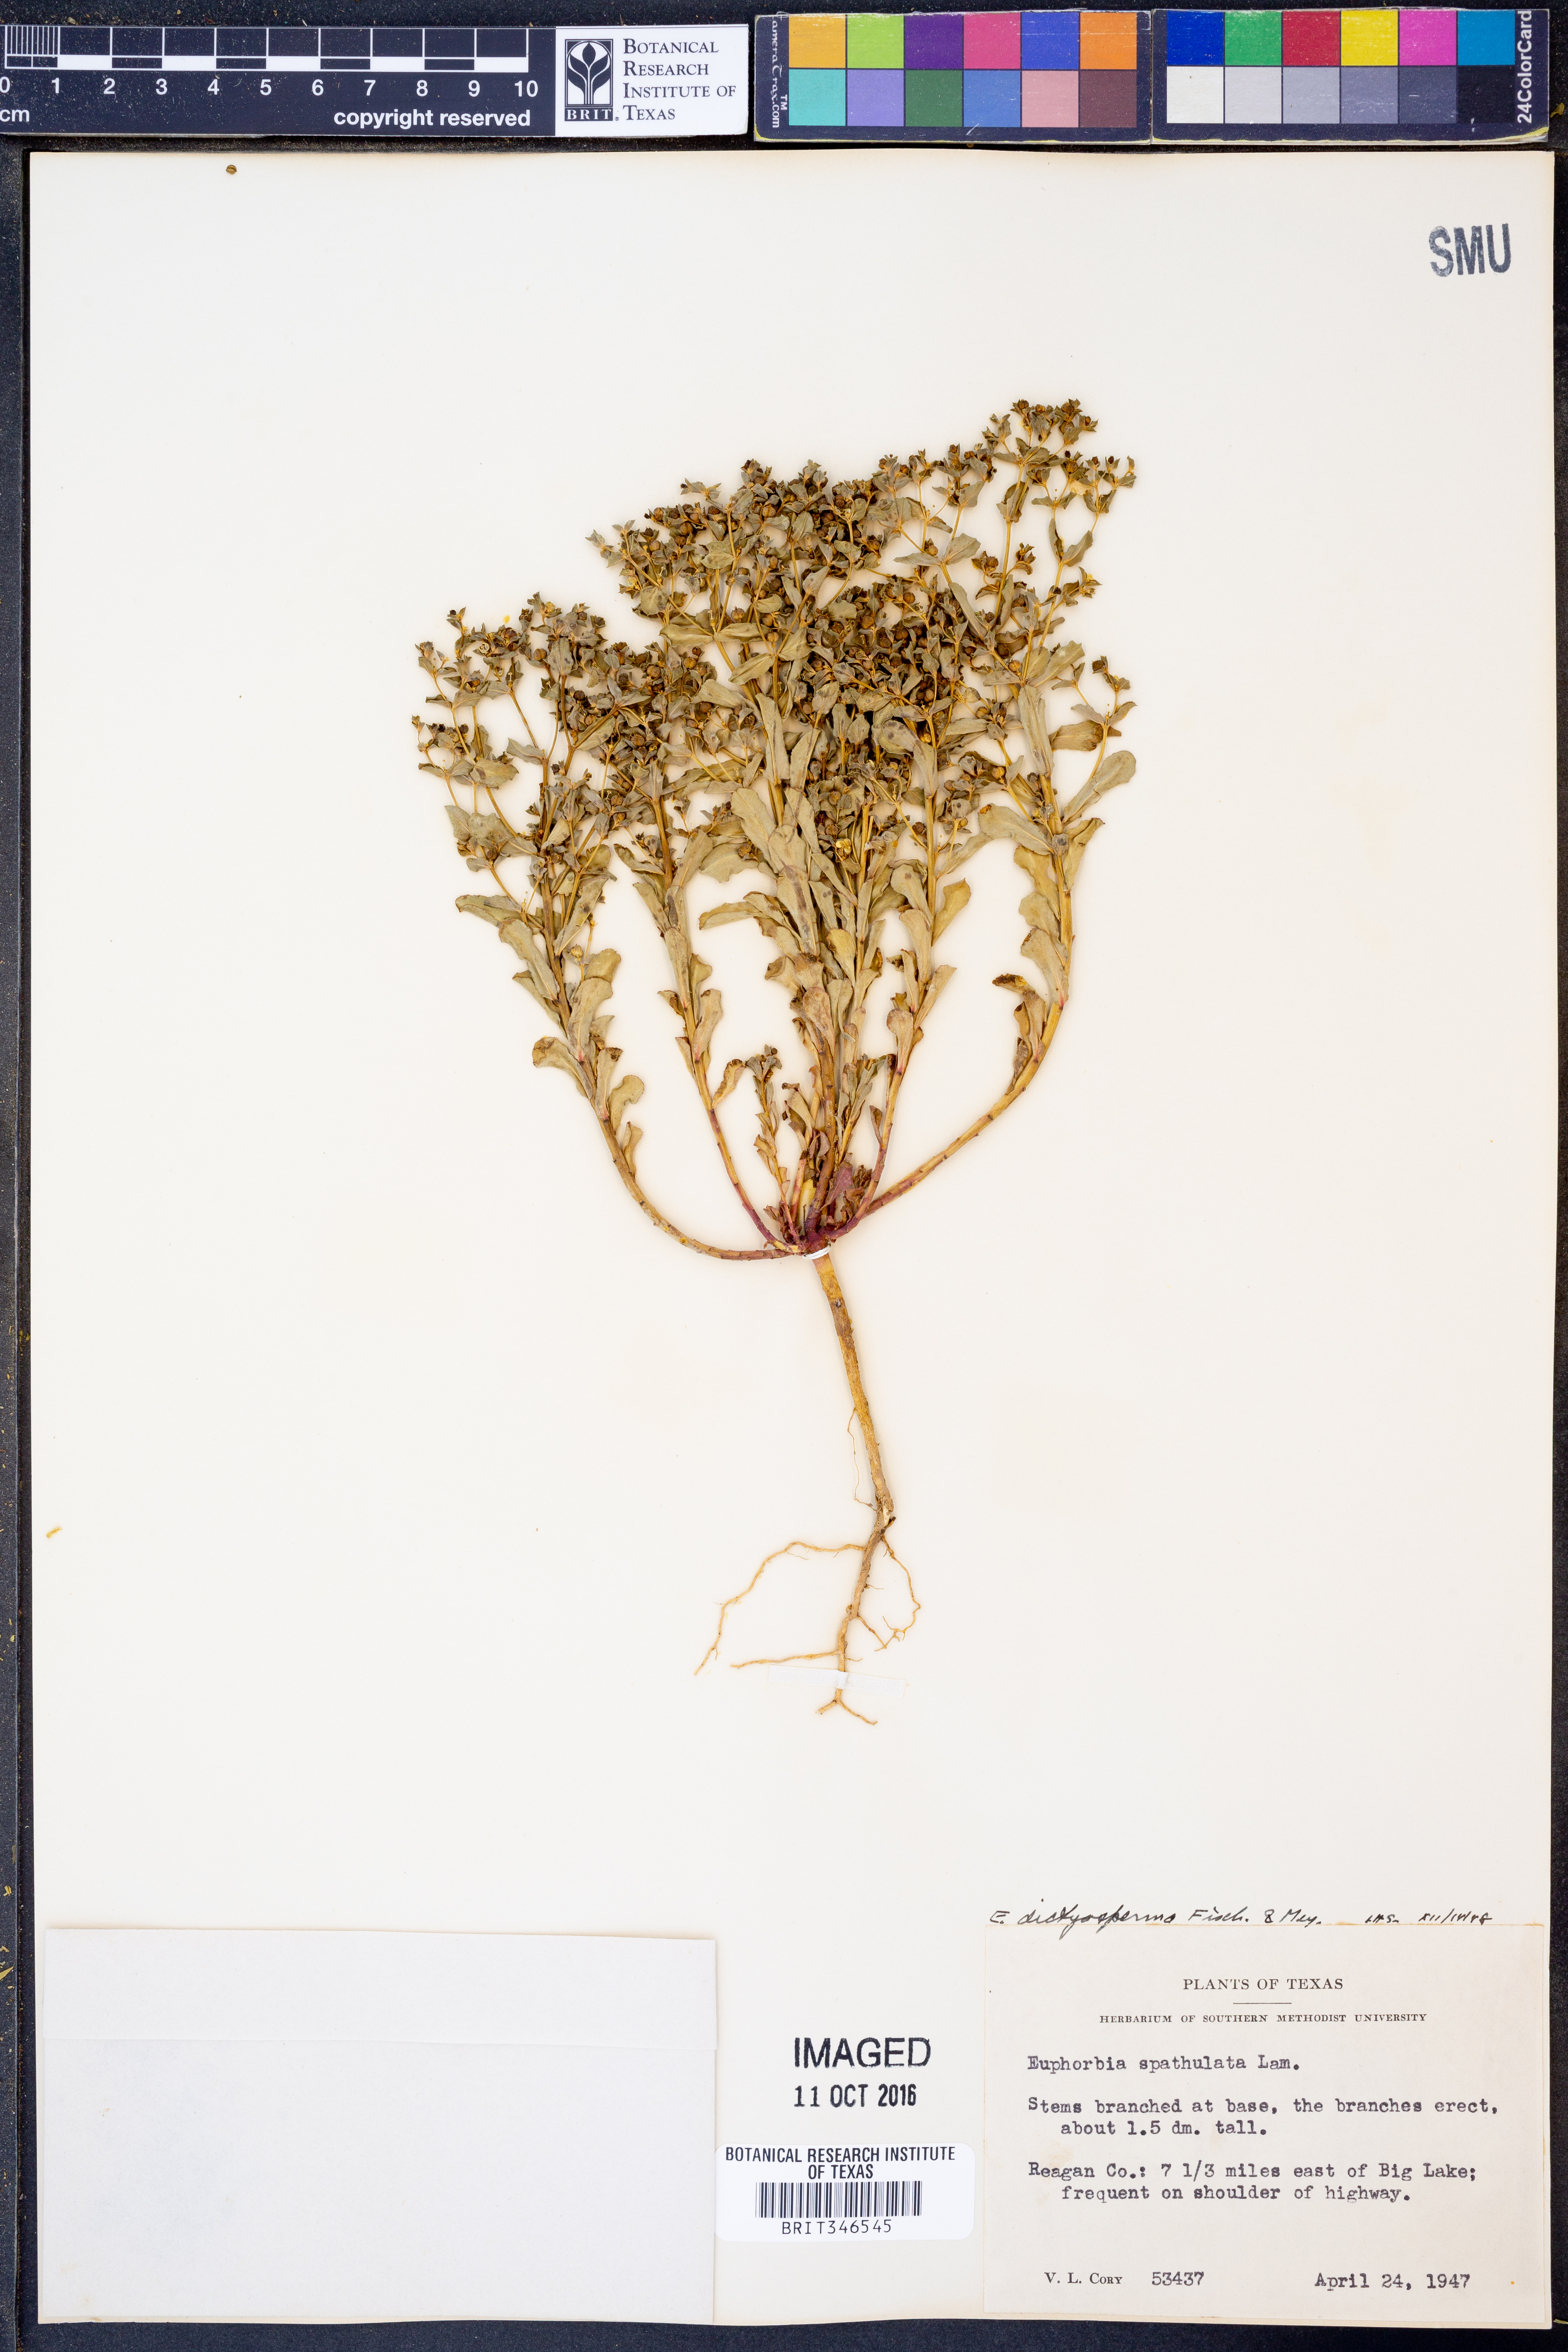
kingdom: Plantae
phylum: Tracheophyta
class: Magnoliopsida
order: Malpighiales
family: Euphorbiaceae
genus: Euphorbia
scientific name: Euphorbia spathulata
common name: Blunt spurge
